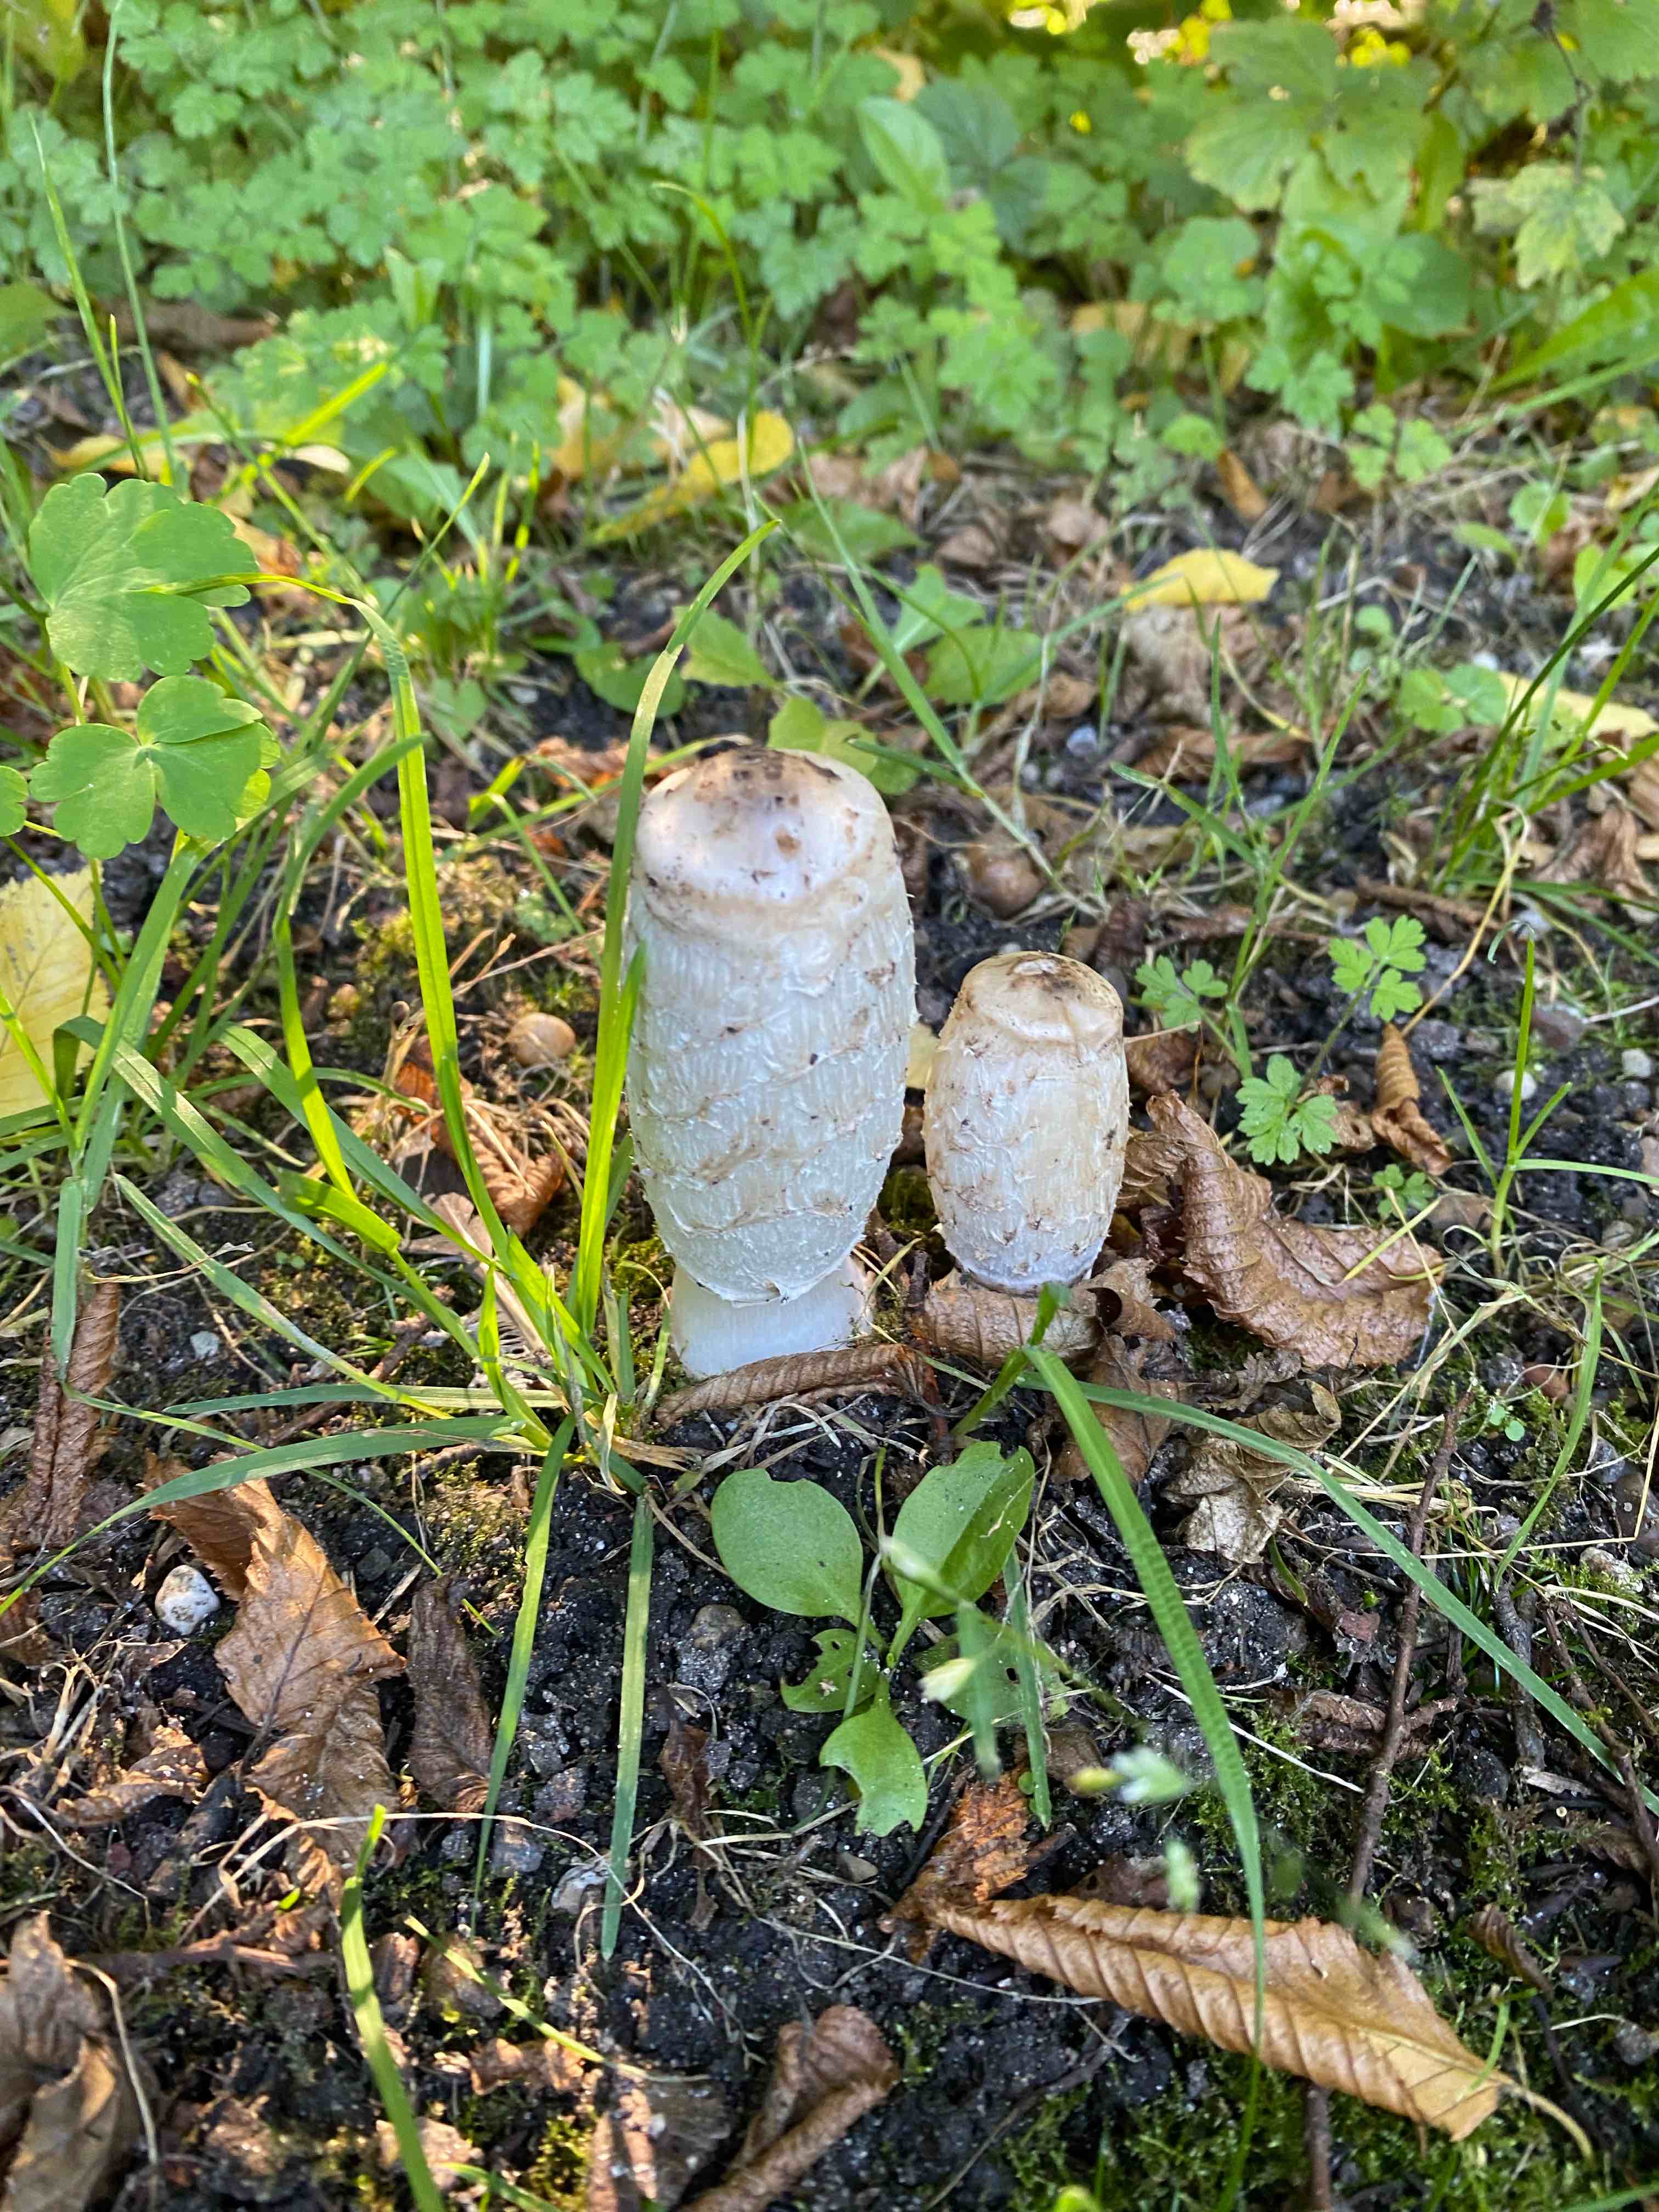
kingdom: Fungi
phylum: Basidiomycota
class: Agaricomycetes
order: Agaricales
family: Agaricaceae
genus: Coprinus
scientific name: Coprinus comatus
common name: stor parykhat
